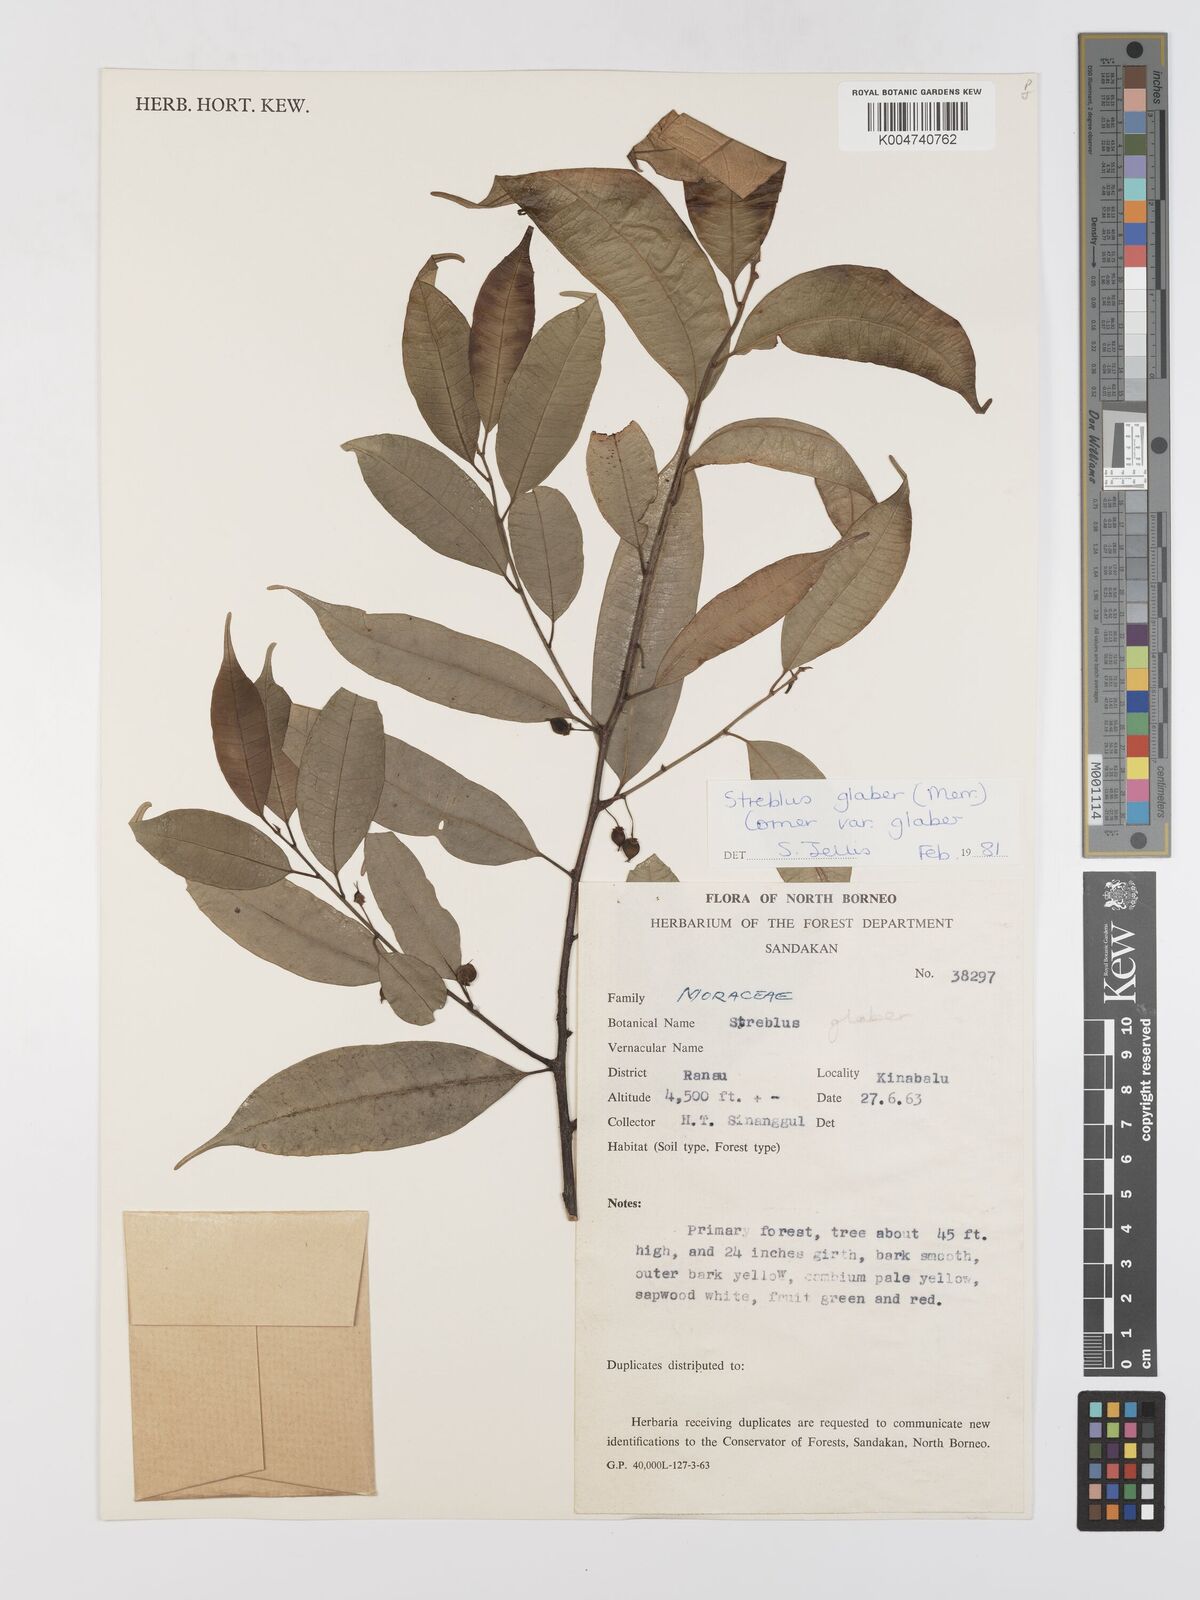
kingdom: Plantae
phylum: Tracheophyta
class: Magnoliopsida
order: Rosales
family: Moraceae
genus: Paratrophis
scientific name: Paratrophis glabra
